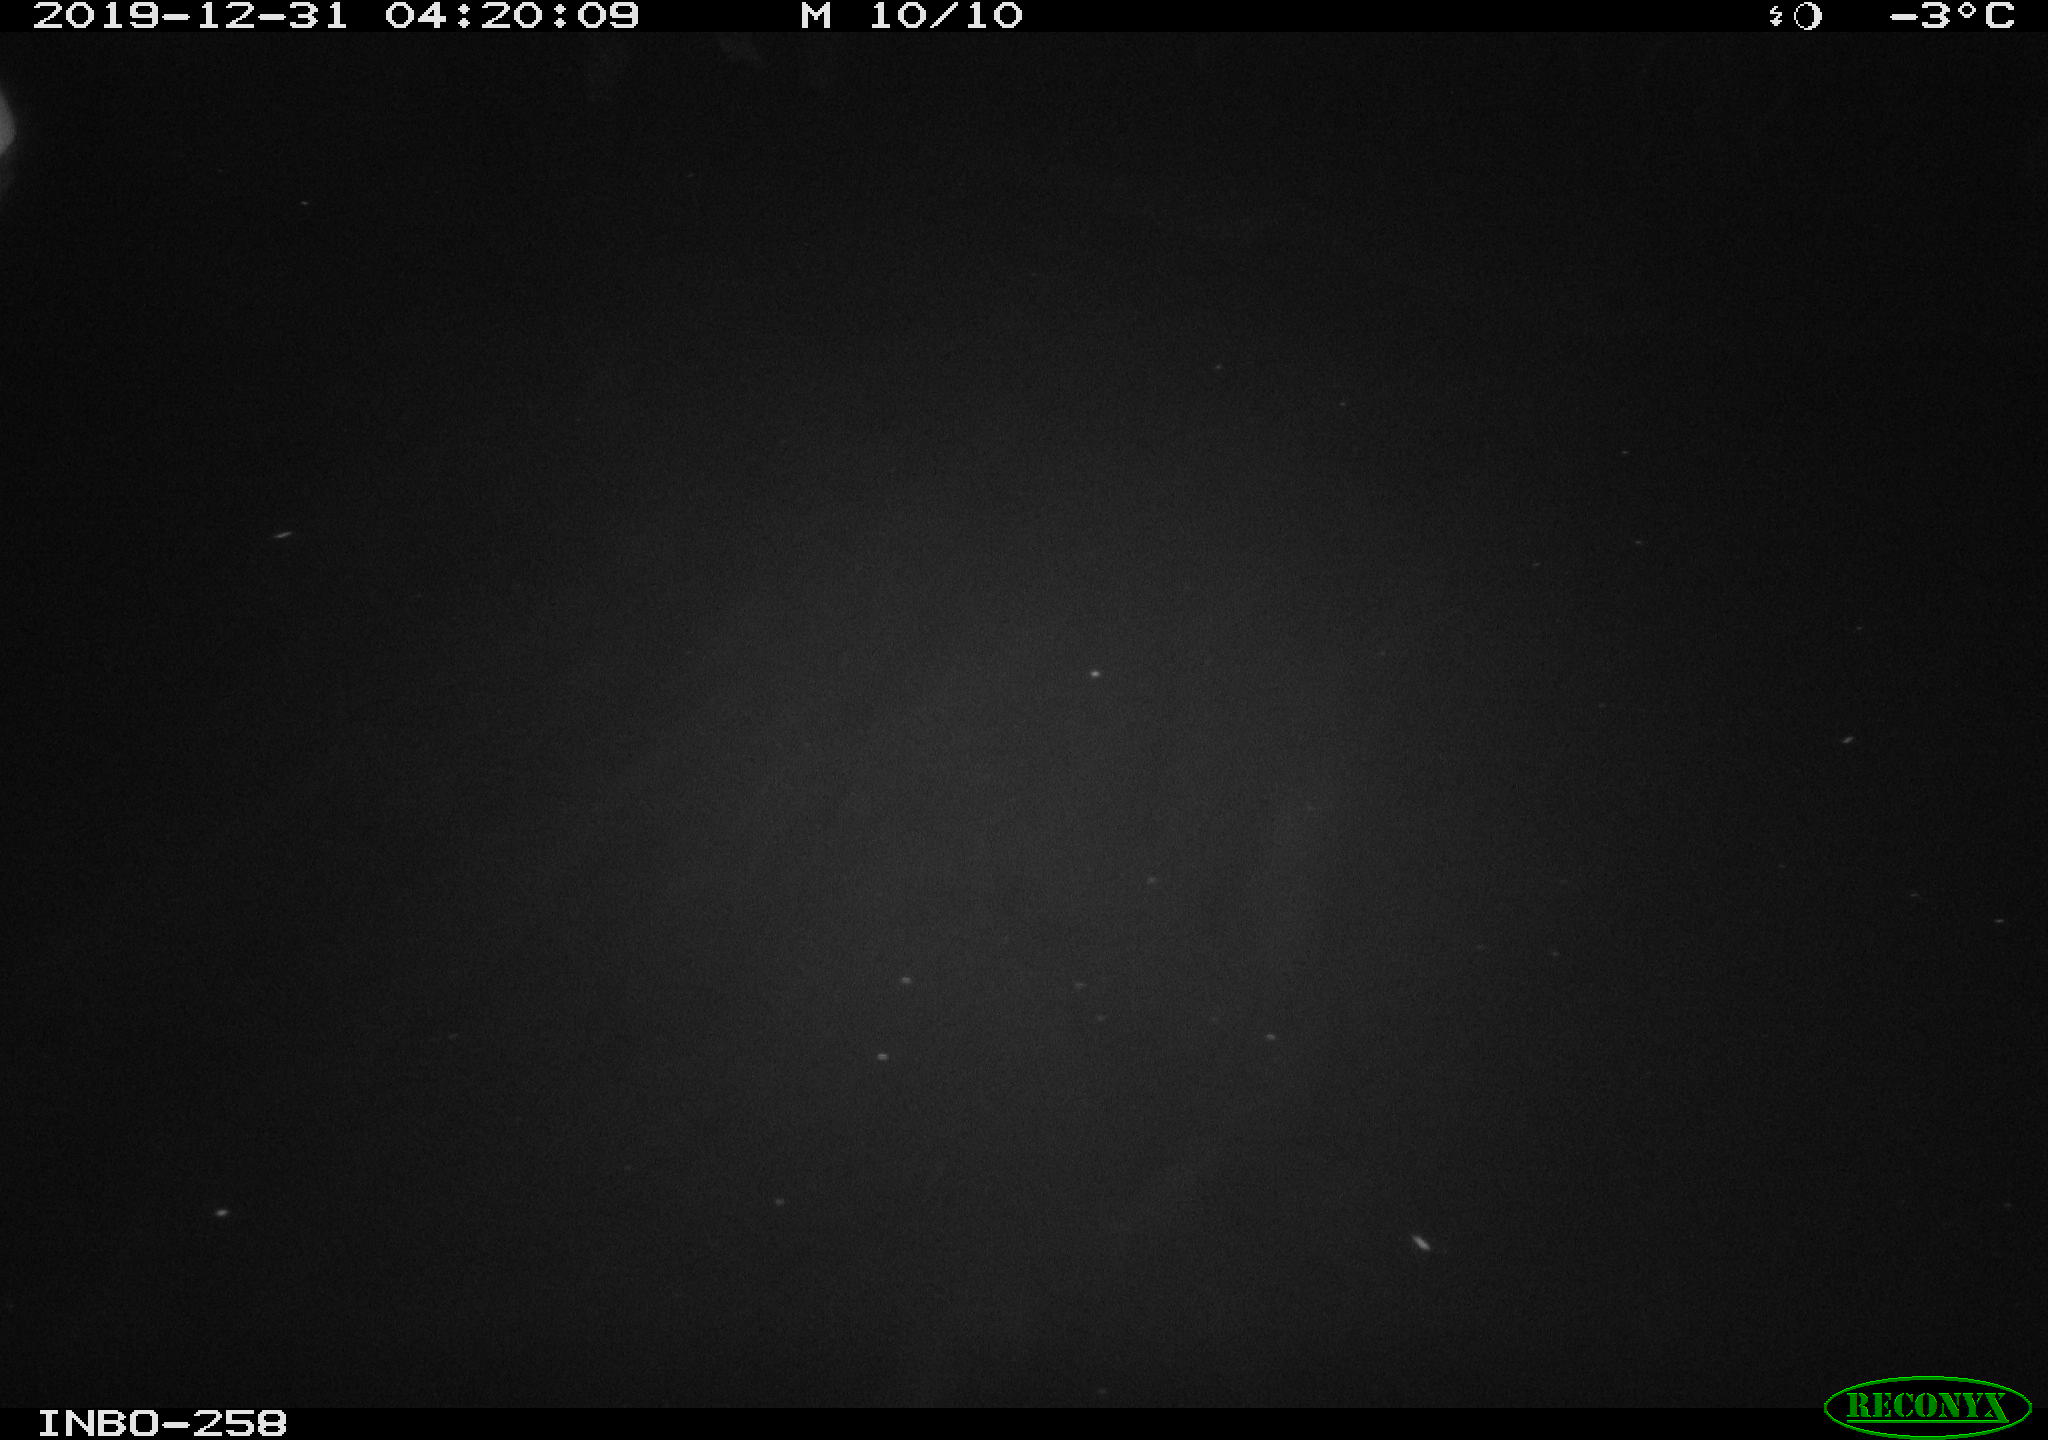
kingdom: Animalia
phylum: Chordata
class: Aves
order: Anseriformes
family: Anatidae
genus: Anas
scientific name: Anas platyrhynchos
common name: Mallard
